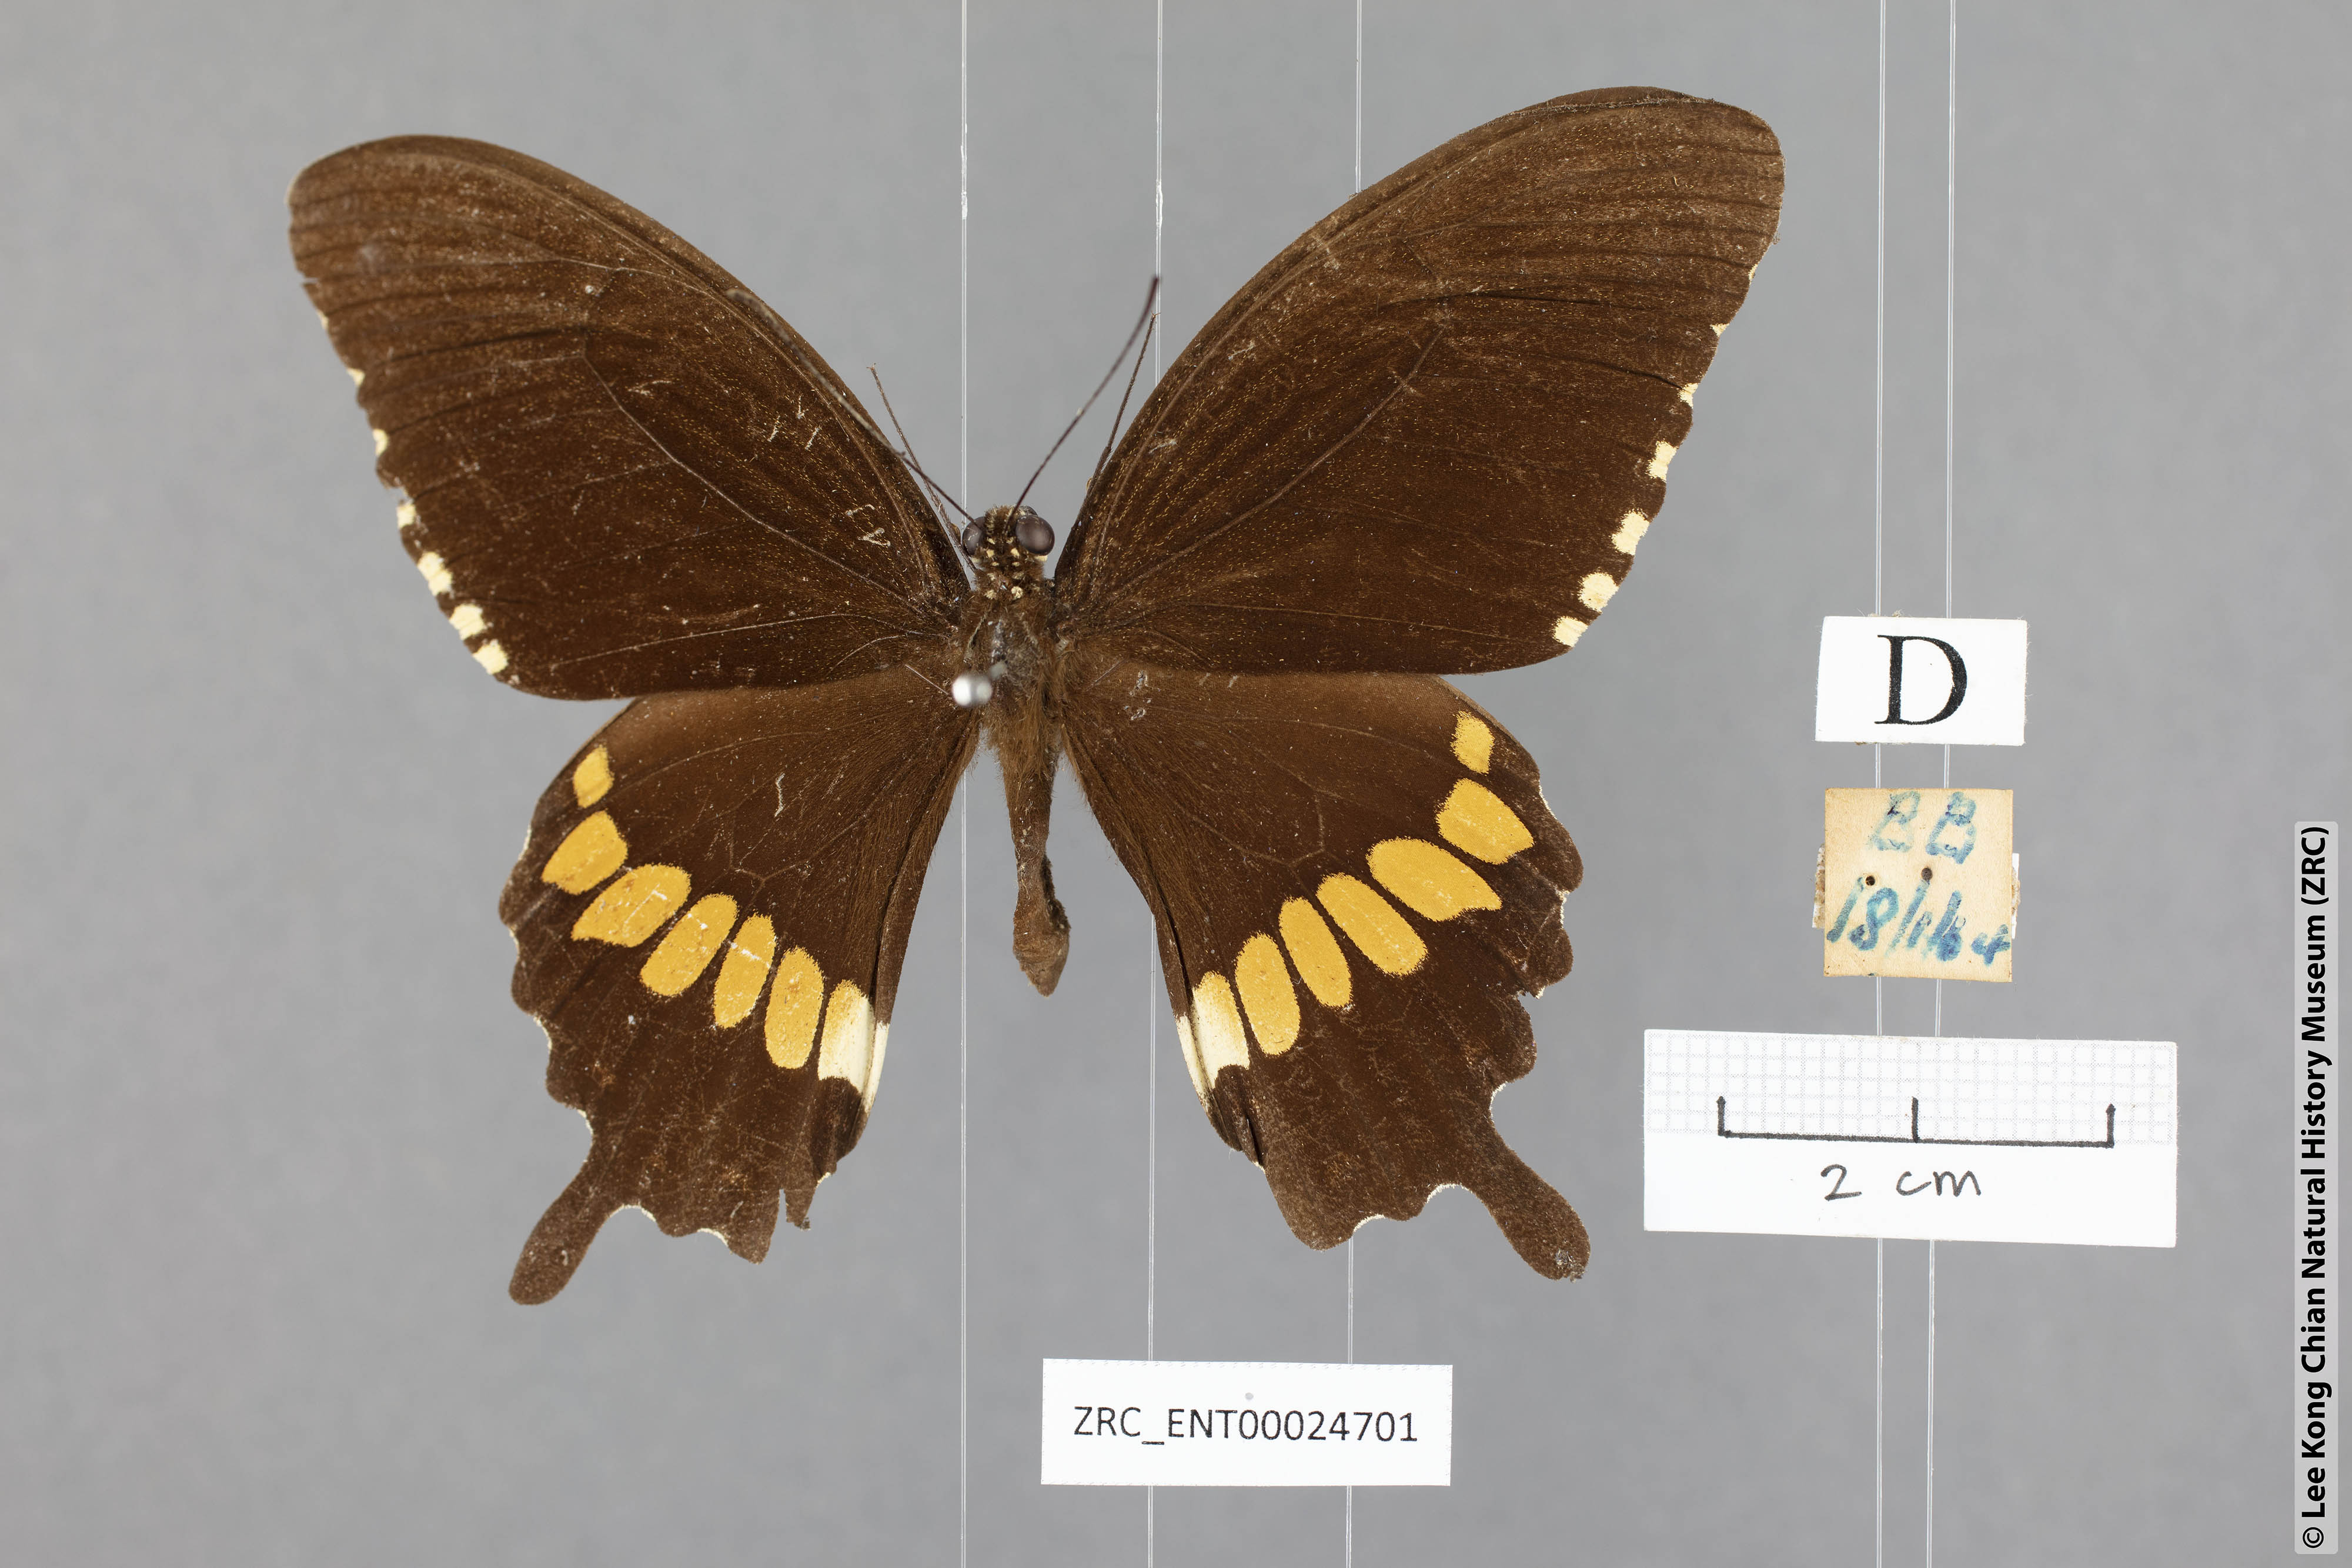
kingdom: Animalia
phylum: Arthropoda
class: Insecta
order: Lepidoptera
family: Papilionidae
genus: Papilio
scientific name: Papilio polytes
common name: Common mormon
